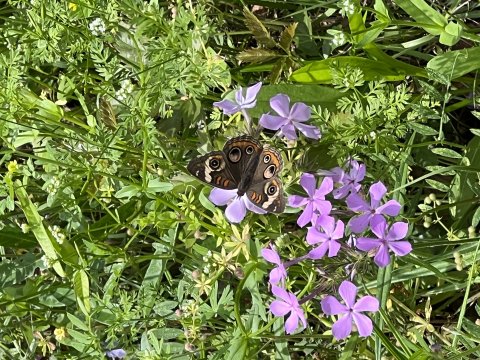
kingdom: Animalia
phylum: Arthropoda
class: Insecta
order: Lepidoptera
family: Nymphalidae
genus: Junonia
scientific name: Junonia coenia
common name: Common Buckeye
